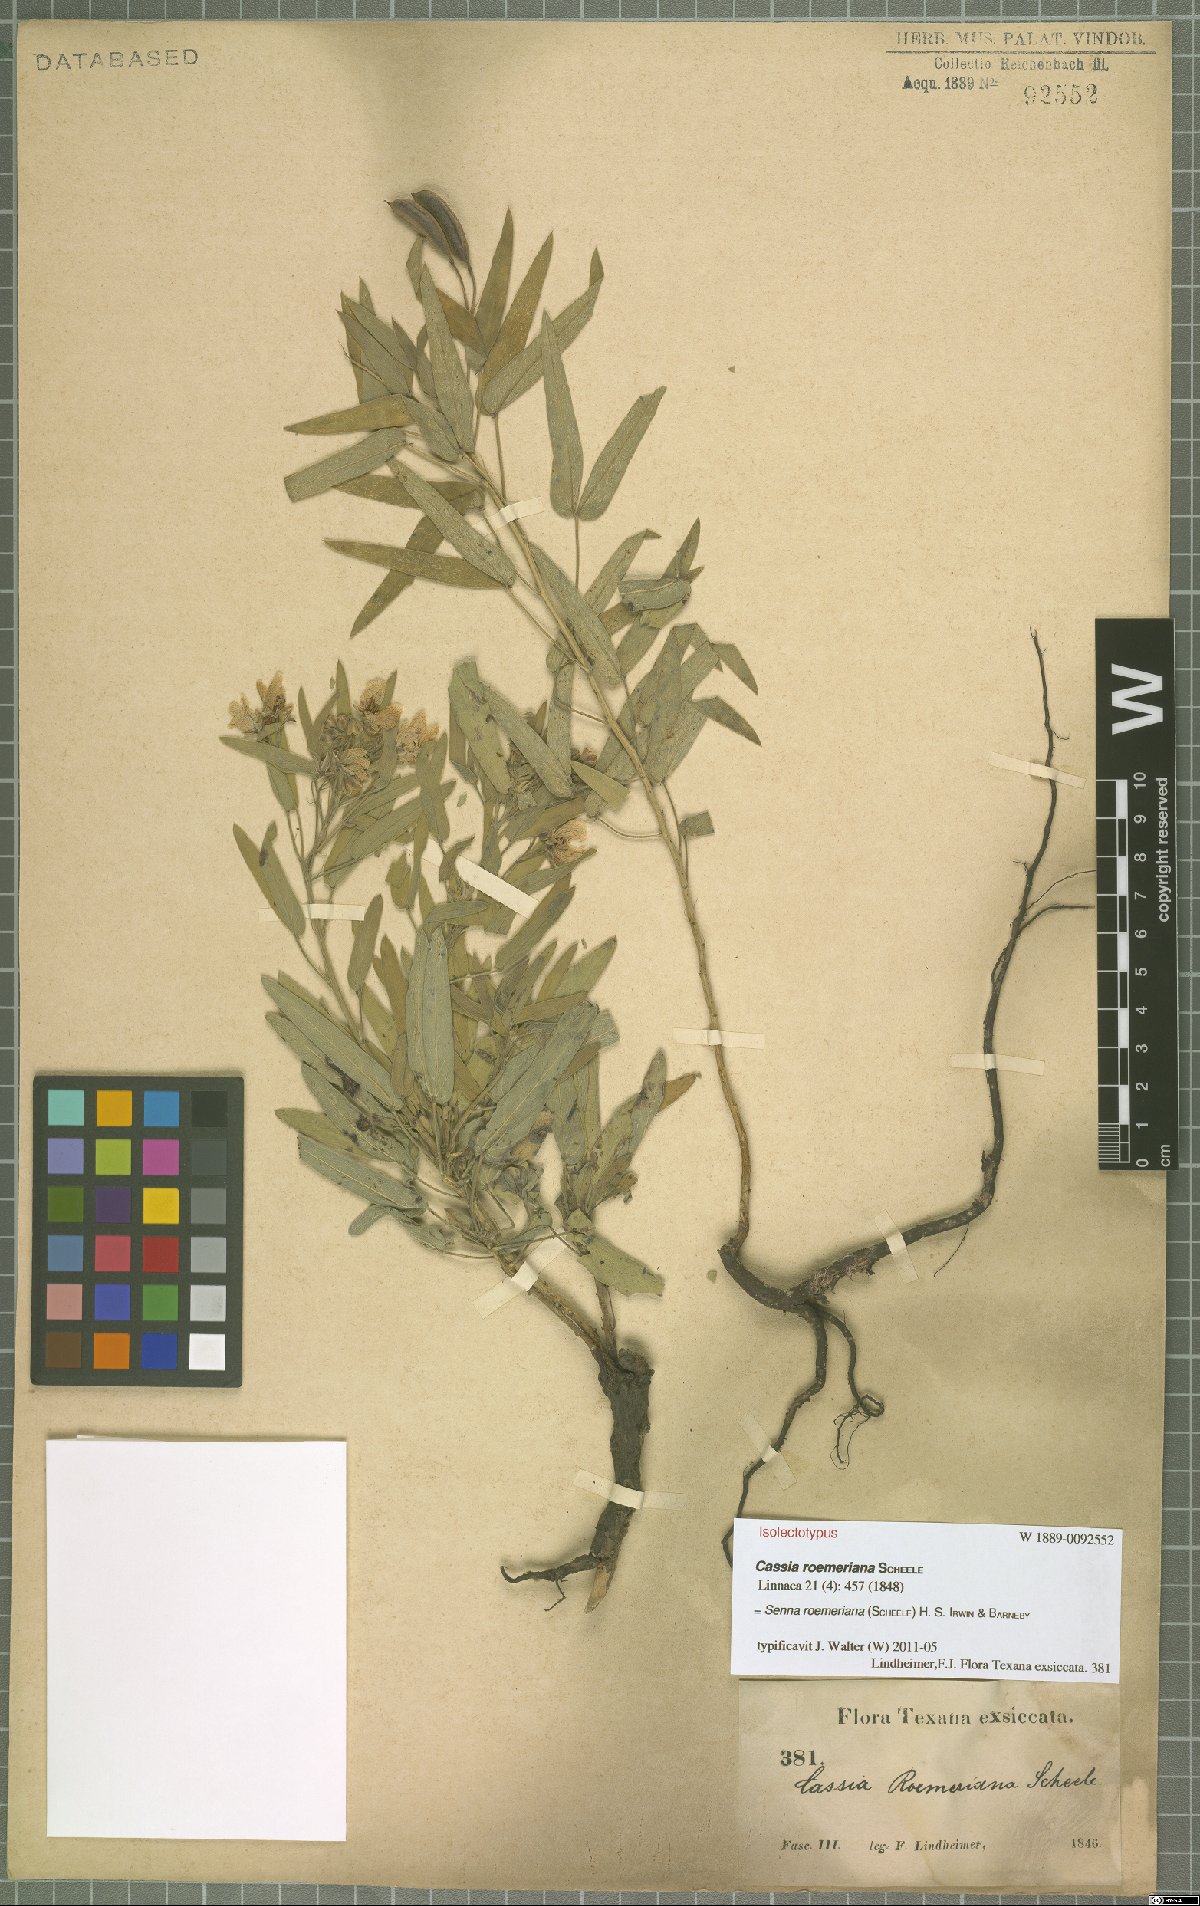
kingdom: Plantae
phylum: Tracheophyta
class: Magnoliopsida
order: Fabales
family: Fabaceae
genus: Senna
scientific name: Senna roemeriana
